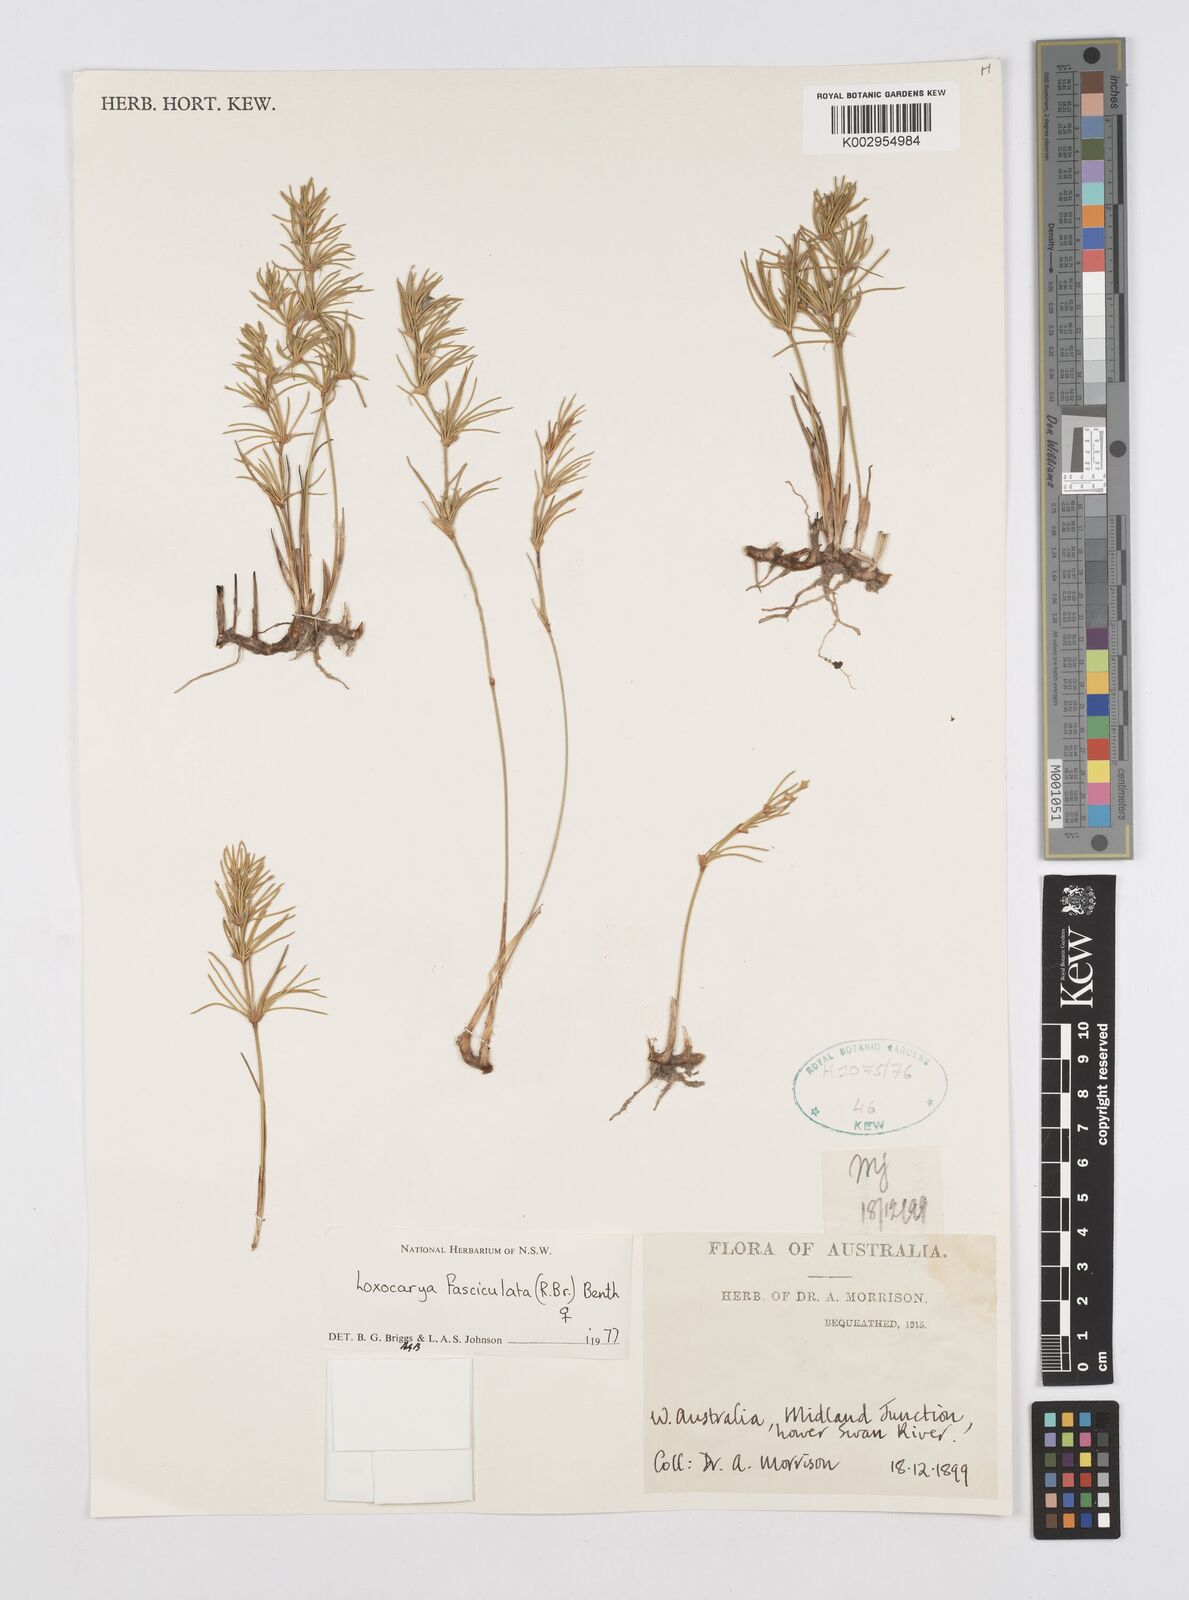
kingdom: Plantae
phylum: Tracheophyta
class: Liliopsida
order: Poales
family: Restionaceae
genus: Desmocladus
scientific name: Desmocladus fasciculatus
